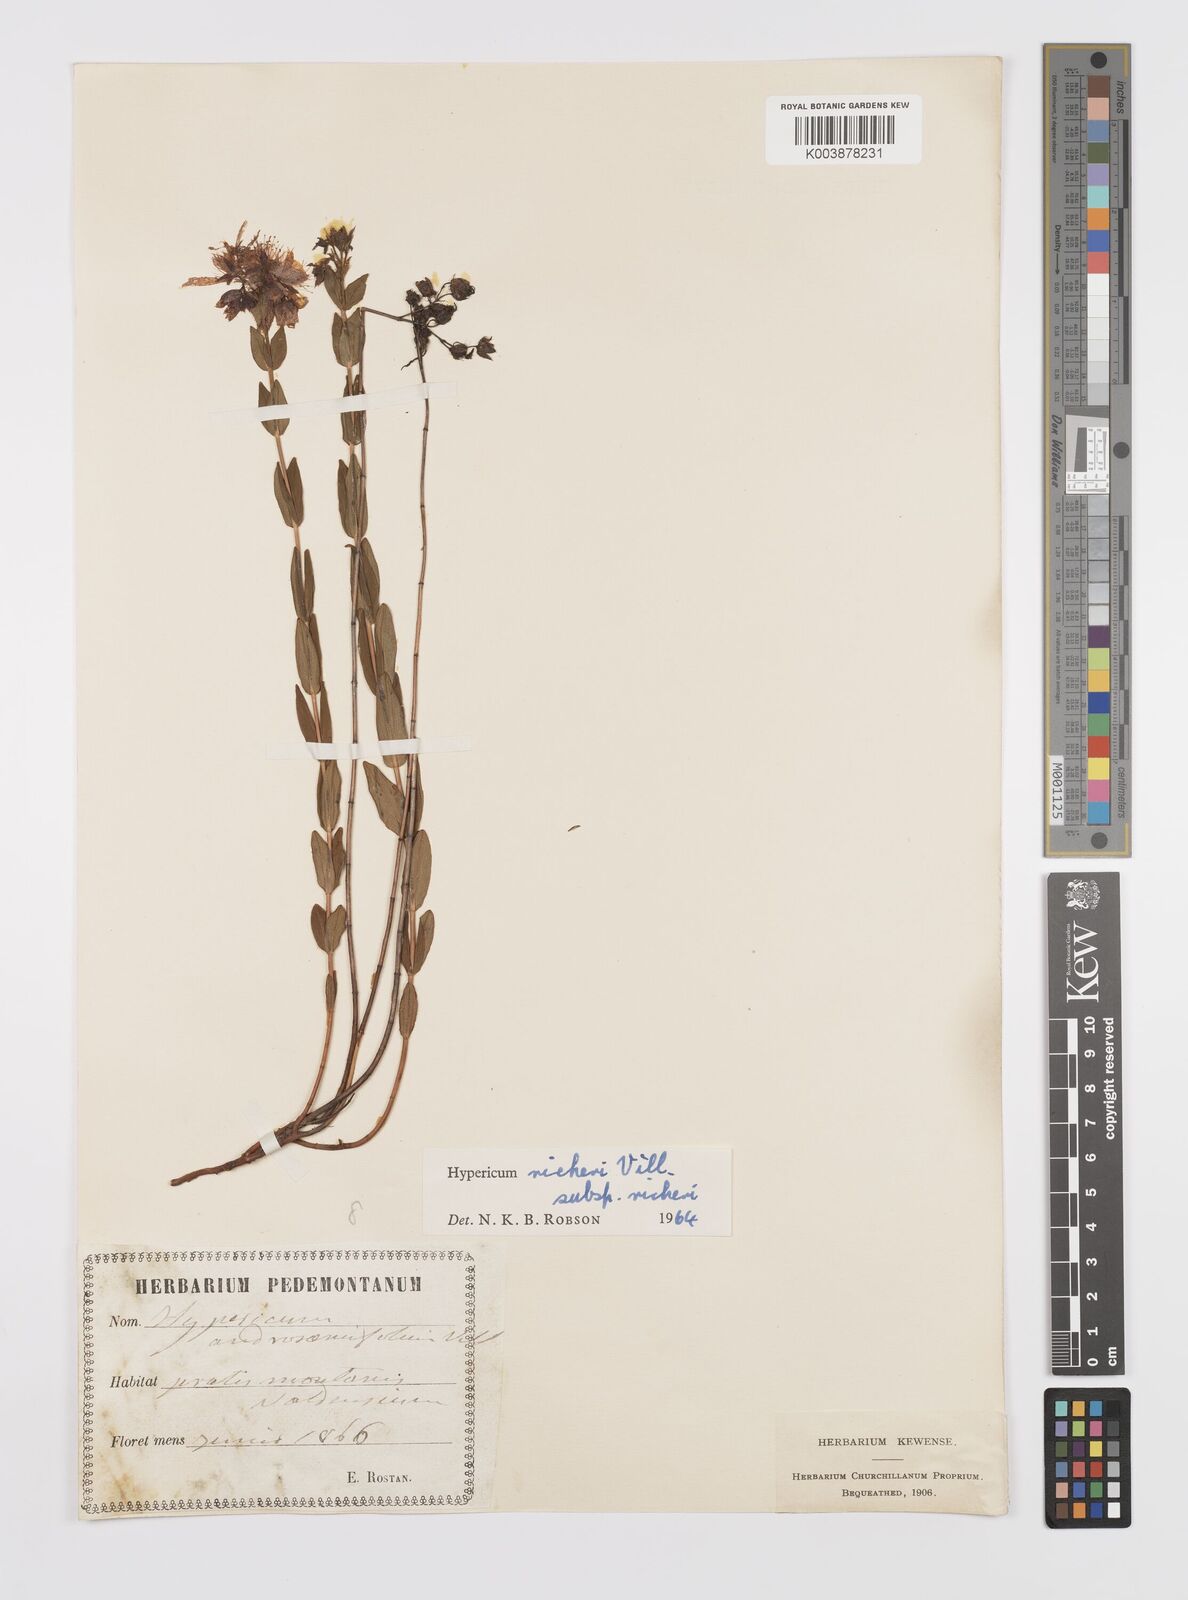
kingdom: Plantae
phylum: Tracheophyta
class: Magnoliopsida
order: Malpighiales
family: Hypericaceae
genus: Hypericum
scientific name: Hypericum richeri
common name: Alpine st john's-wort
